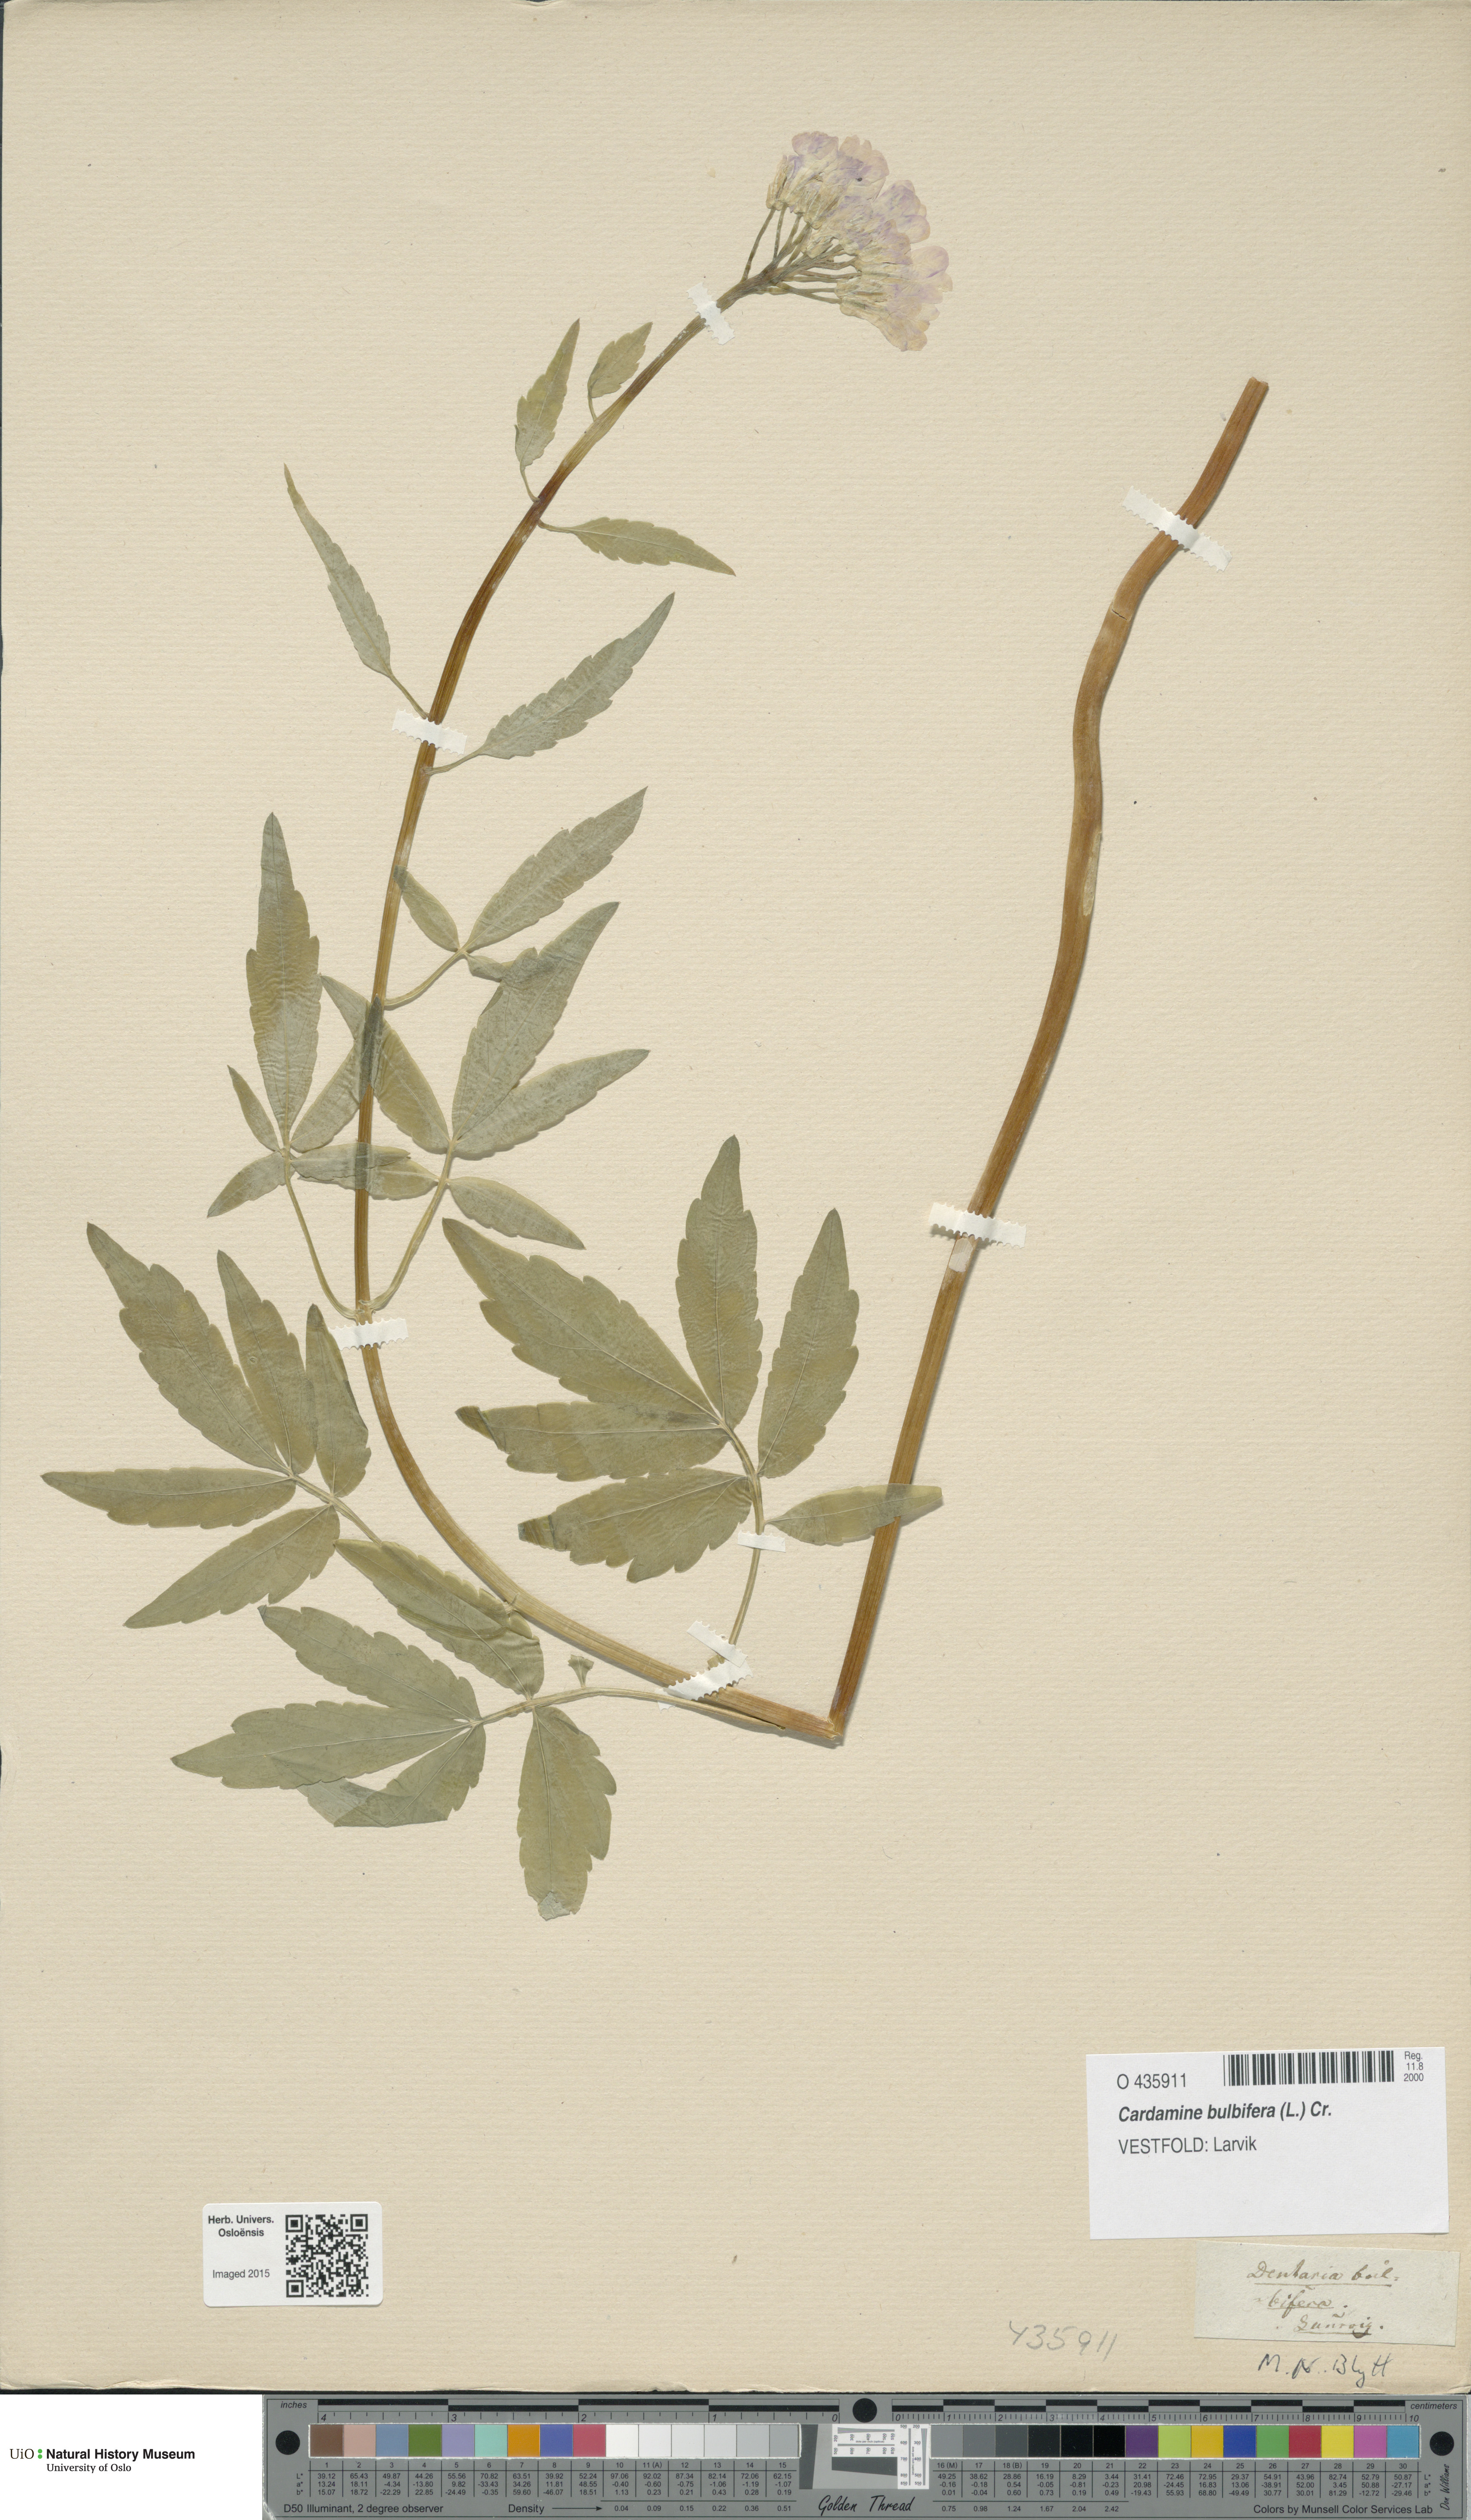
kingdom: Plantae
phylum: Tracheophyta
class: Magnoliopsida
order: Brassicales
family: Brassicaceae
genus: Cardamine
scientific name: Cardamine bulbifera
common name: Coralroot bittercress
